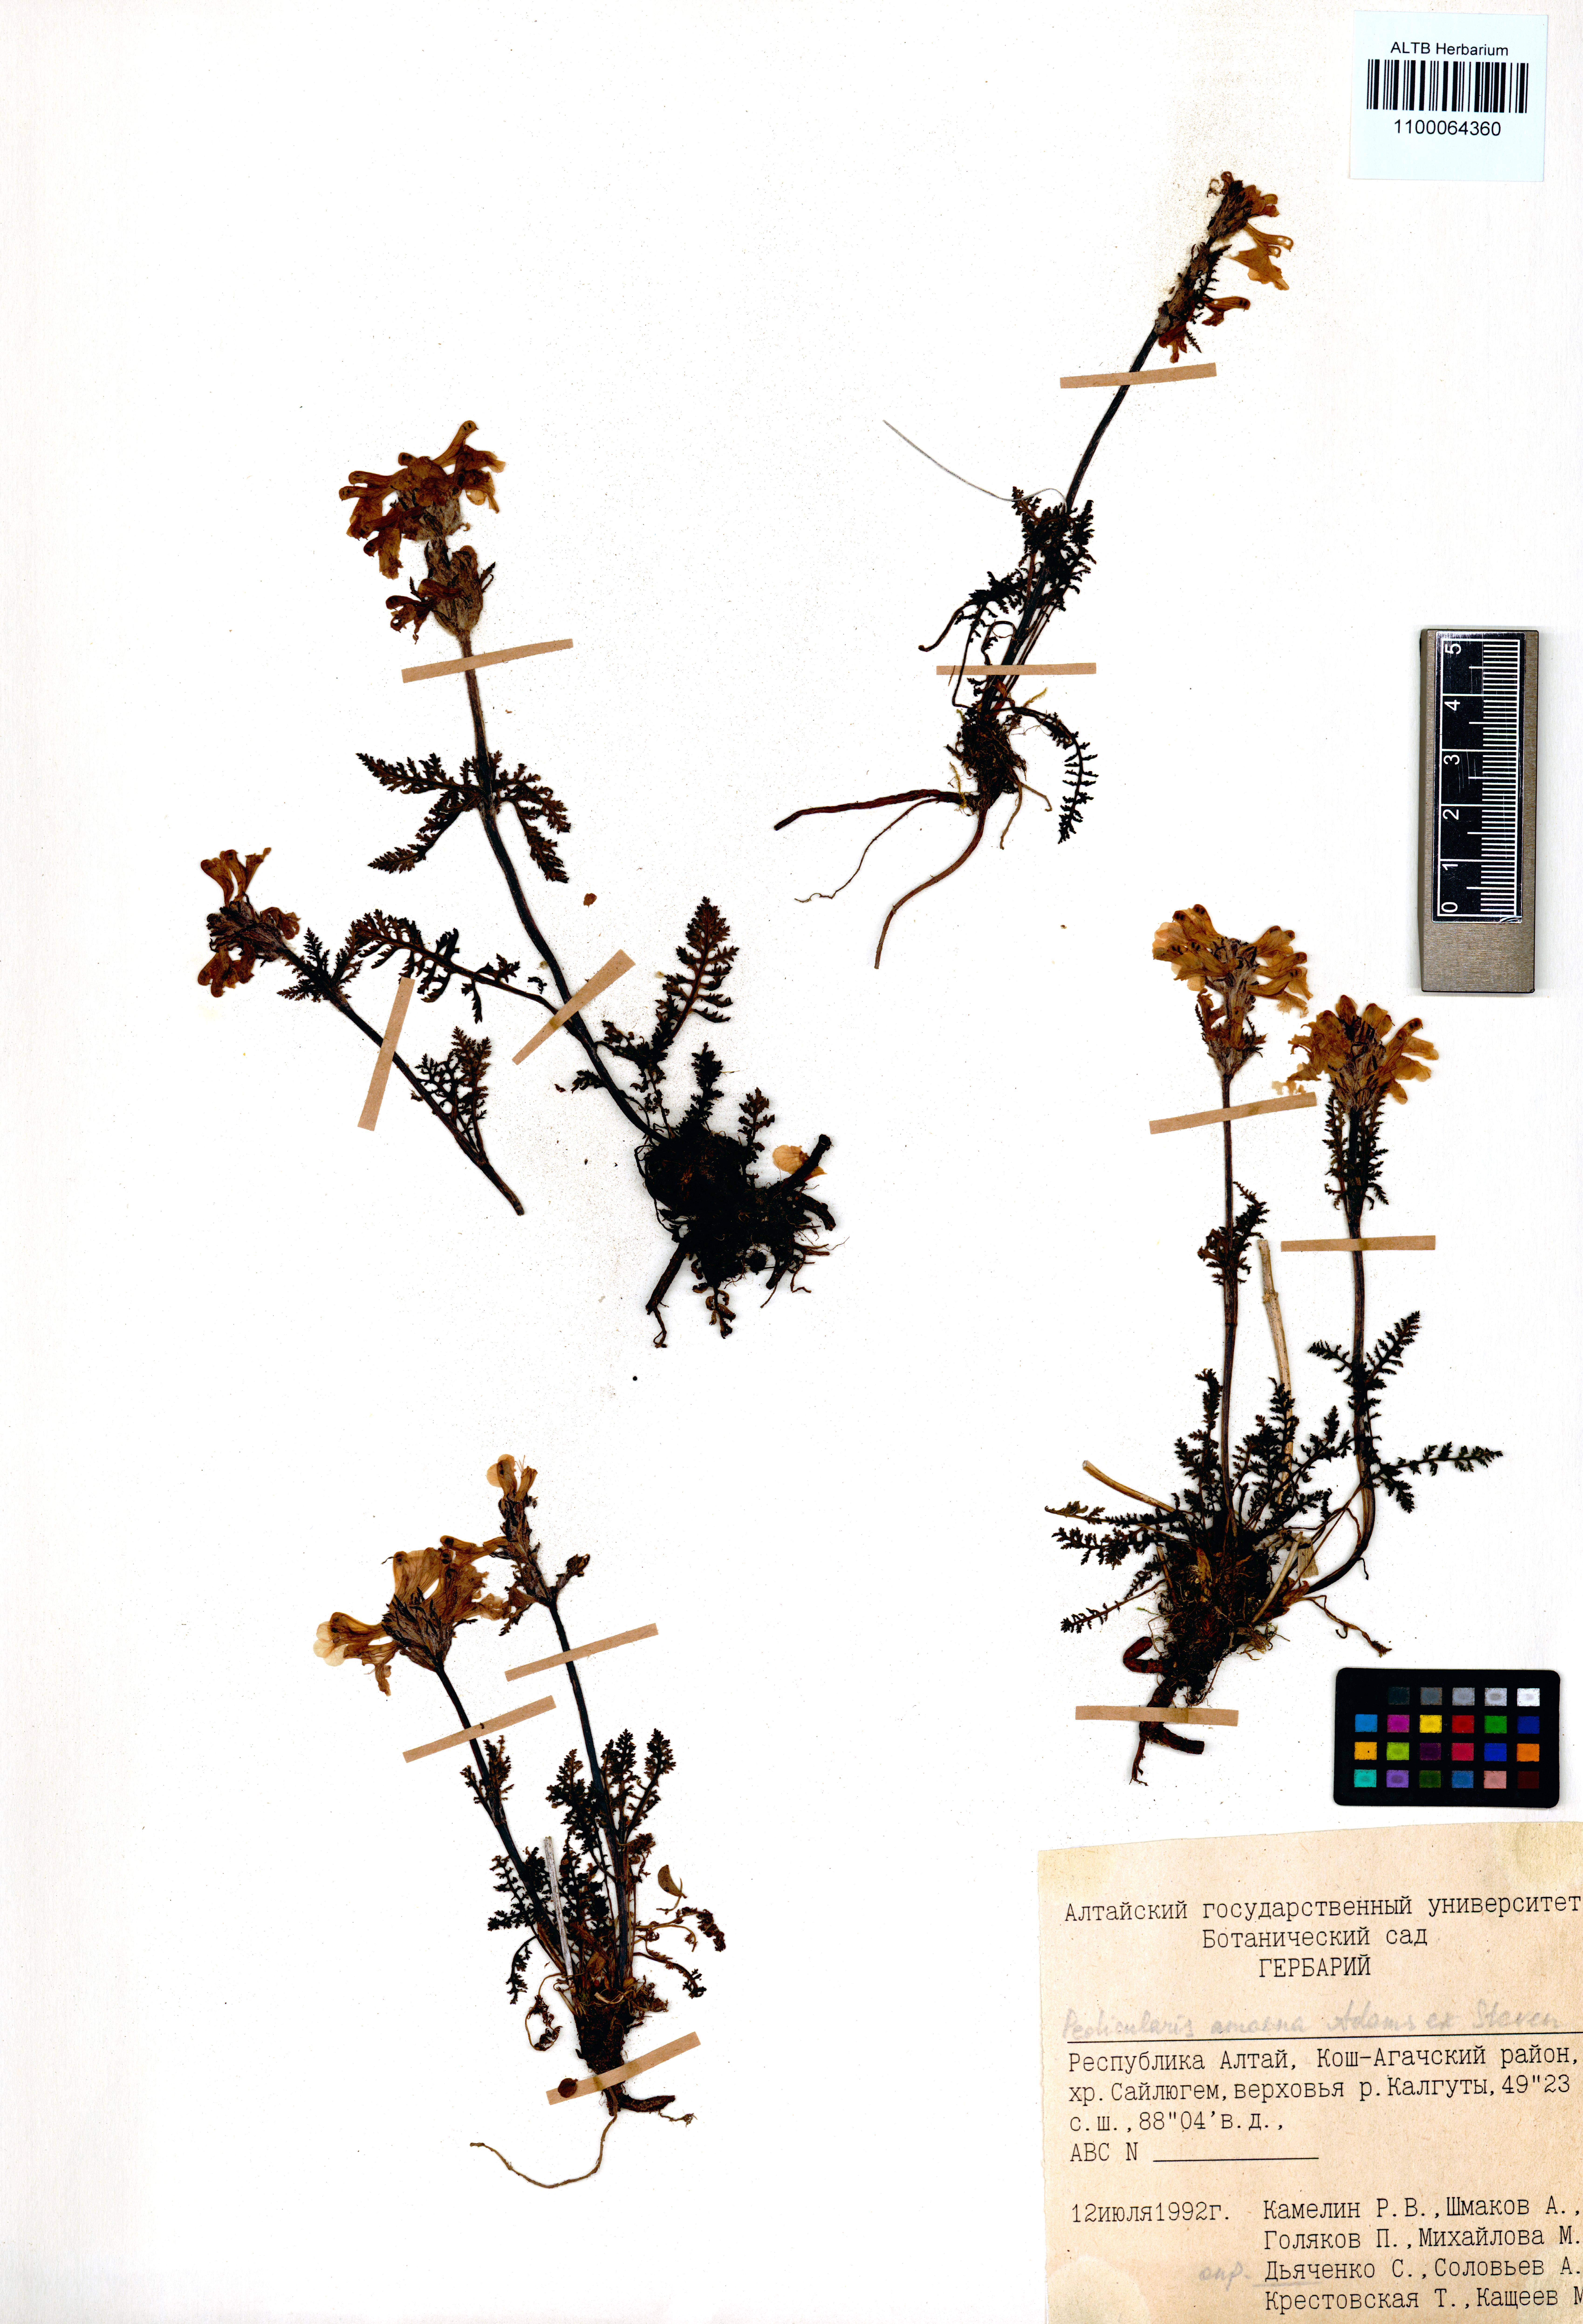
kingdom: Plantae
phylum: Tracheophyta
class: Magnoliopsida
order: Lamiales
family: Orobanchaceae
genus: Pedicularis
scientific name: Pedicularis amoena
